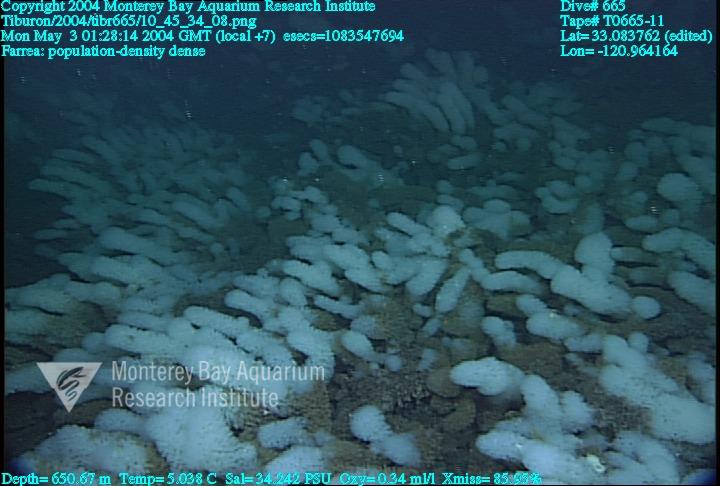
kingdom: Animalia
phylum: Porifera
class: Hexactinellida
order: Sceptrulophora
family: Farreidae
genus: Farrea
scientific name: Farrea
